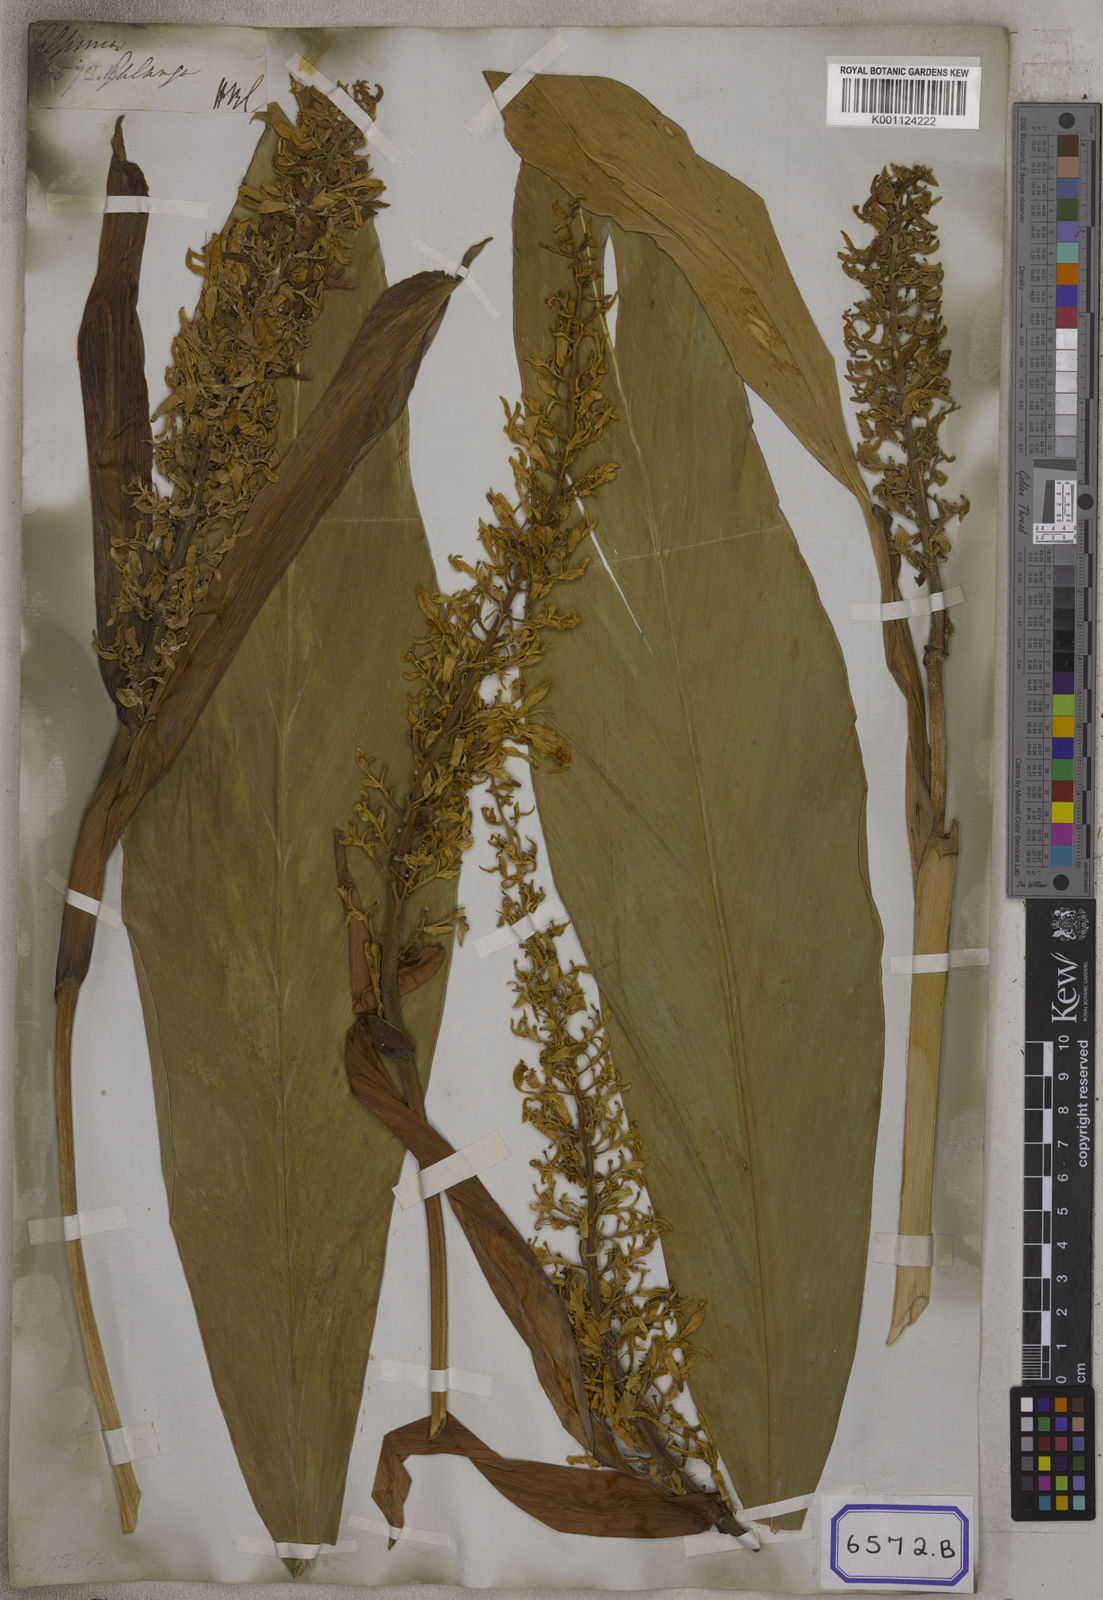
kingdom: Plantae
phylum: Tracheophyta
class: Liliopsida
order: Zingiberales
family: Zingiberaceae
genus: Alpinia
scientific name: Alpinia galanga
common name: Siamese-ginger
